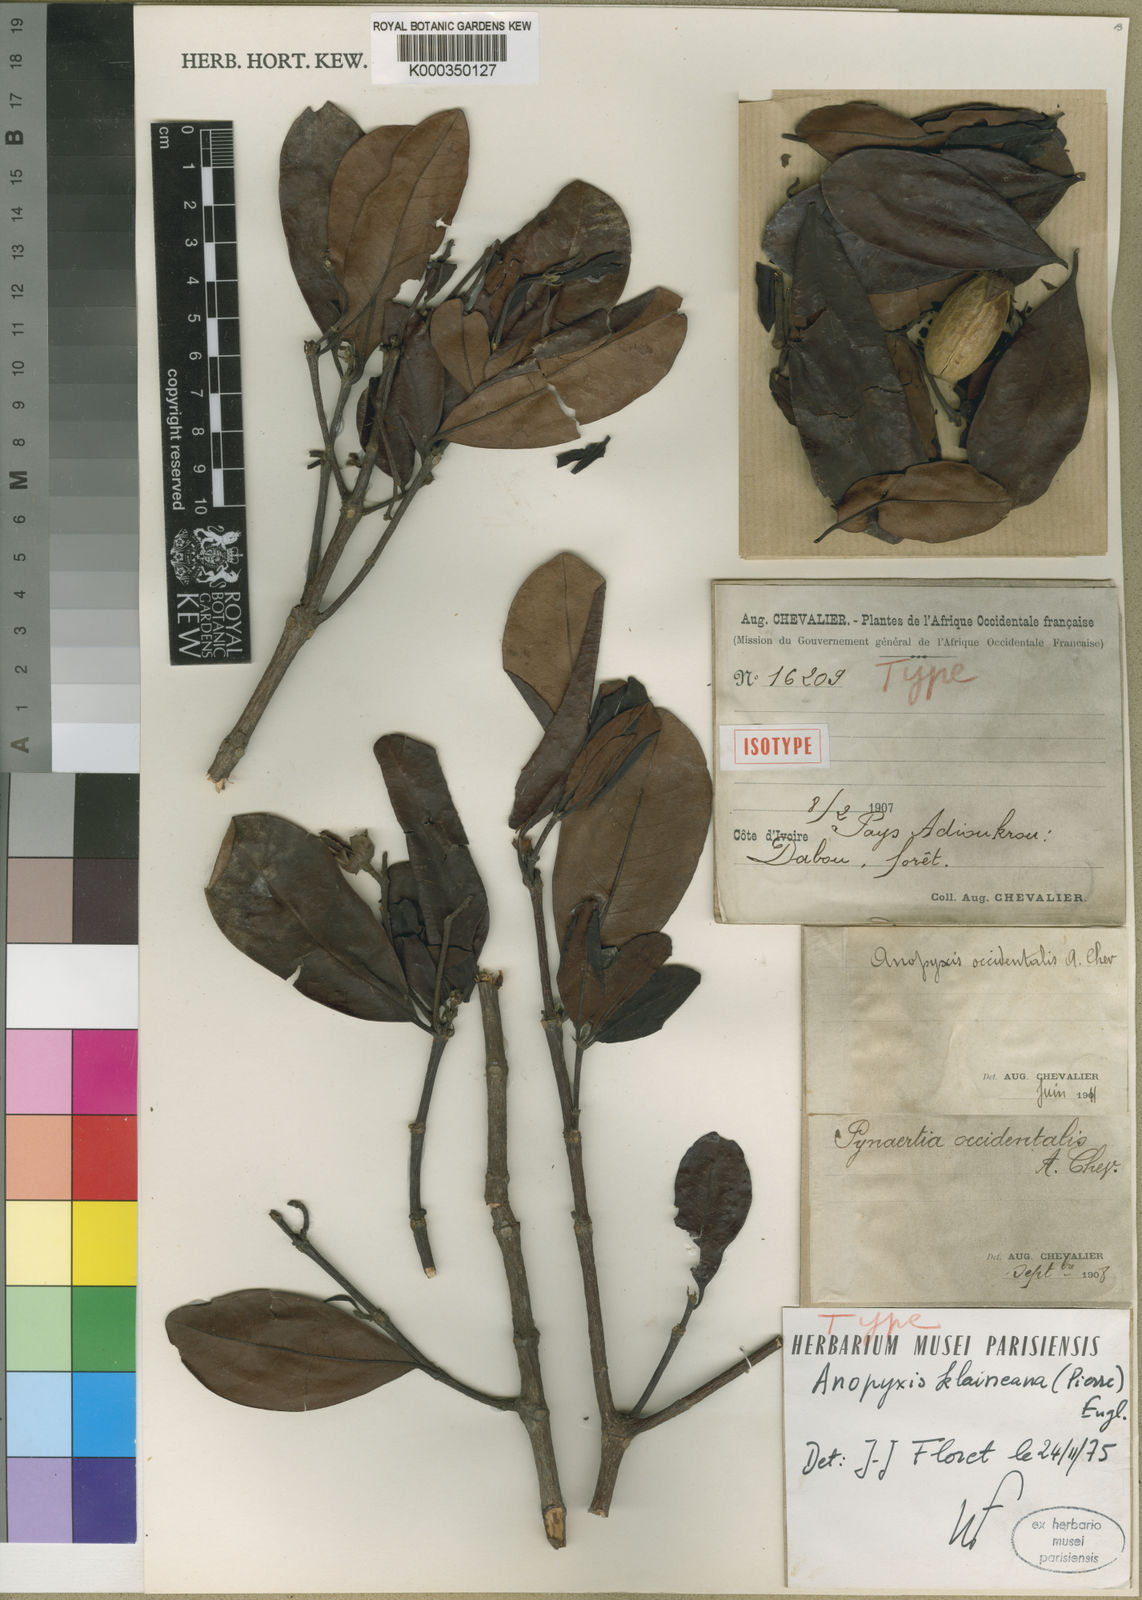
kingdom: Plantae
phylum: Tracheophyta
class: Magnoliopsida
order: Malpighiales
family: Rhizophoraceae
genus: Anopyxis
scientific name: Anopyxis klaineana
